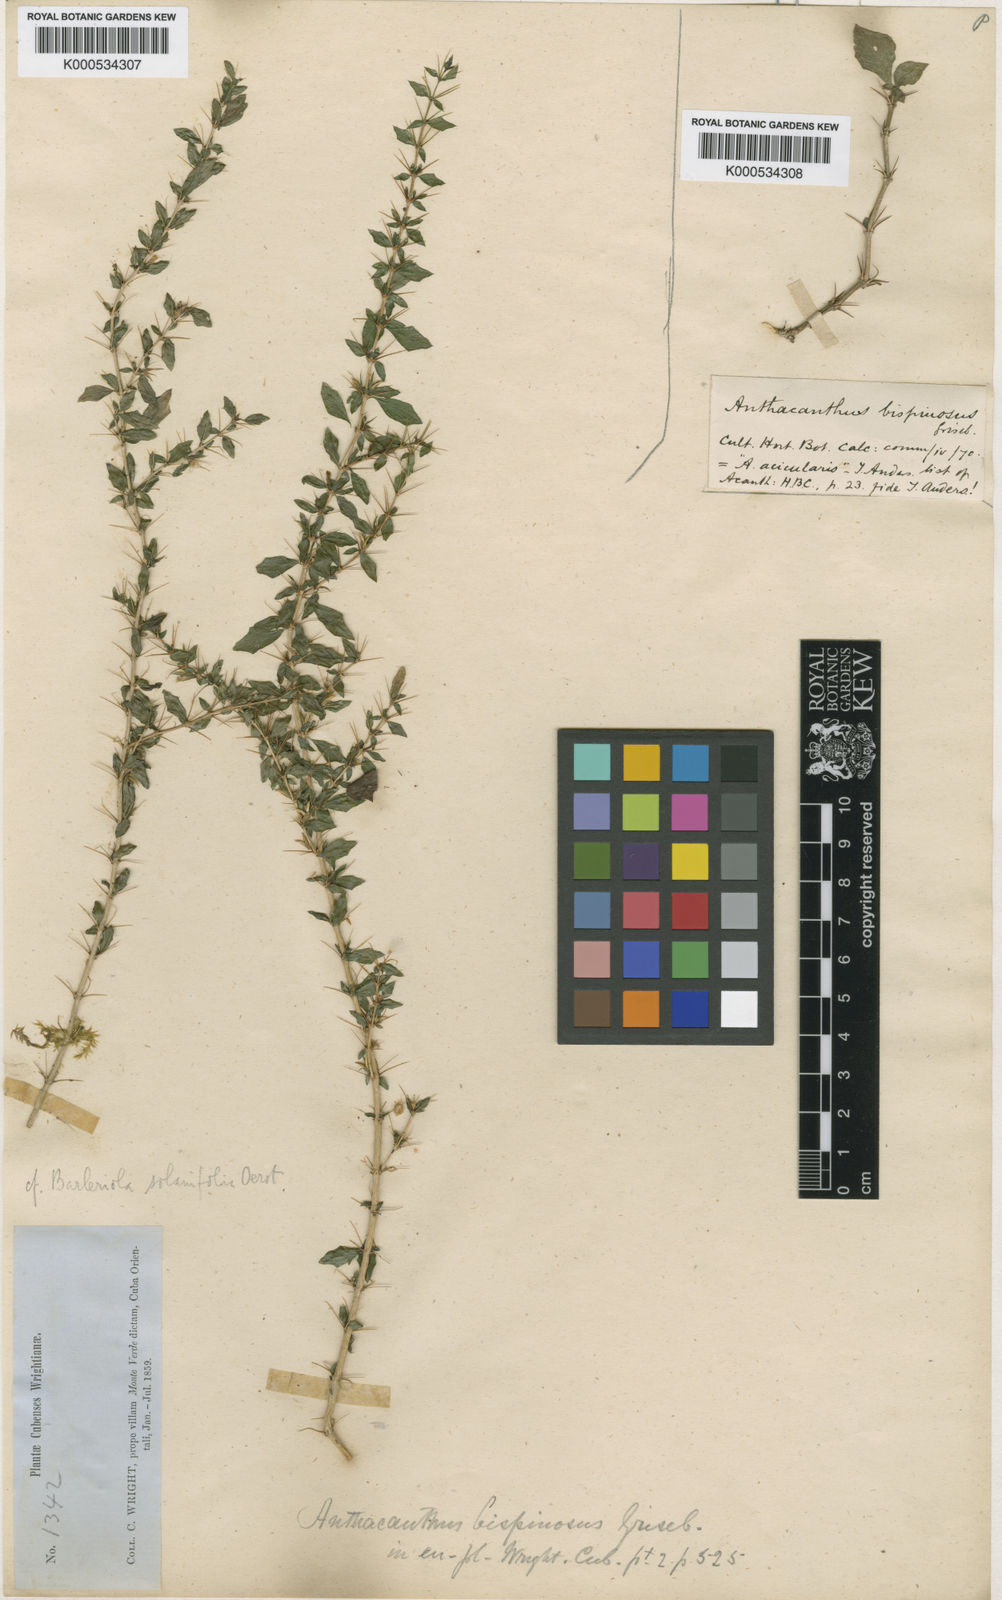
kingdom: Plantae
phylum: Tracheophyta
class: Magnoliopsida
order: Lamiales
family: Acanthaceae
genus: Barleriola
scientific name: Barleriola solanifolia
